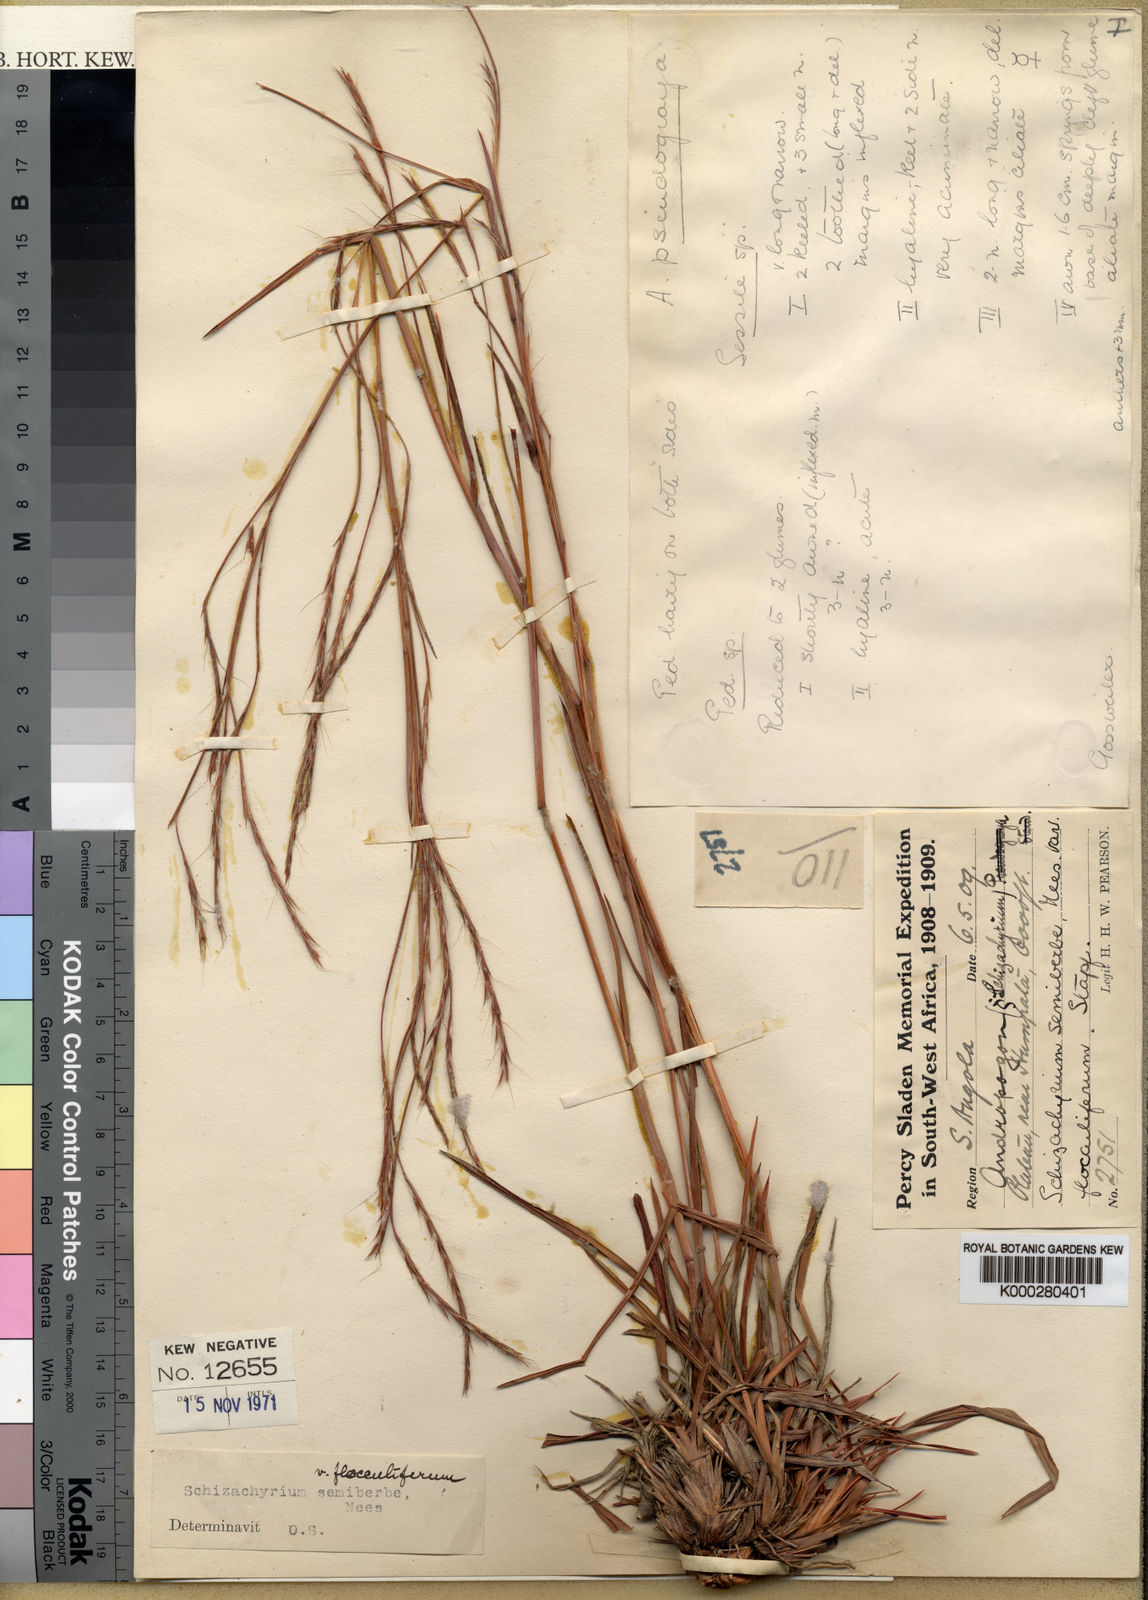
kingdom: Plantae
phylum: Tracheophyta
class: Liliopsida
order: Poales
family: Poaceae
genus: Schizachyrium
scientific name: Schizachyrium sanguineum
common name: Crimson bluestem
